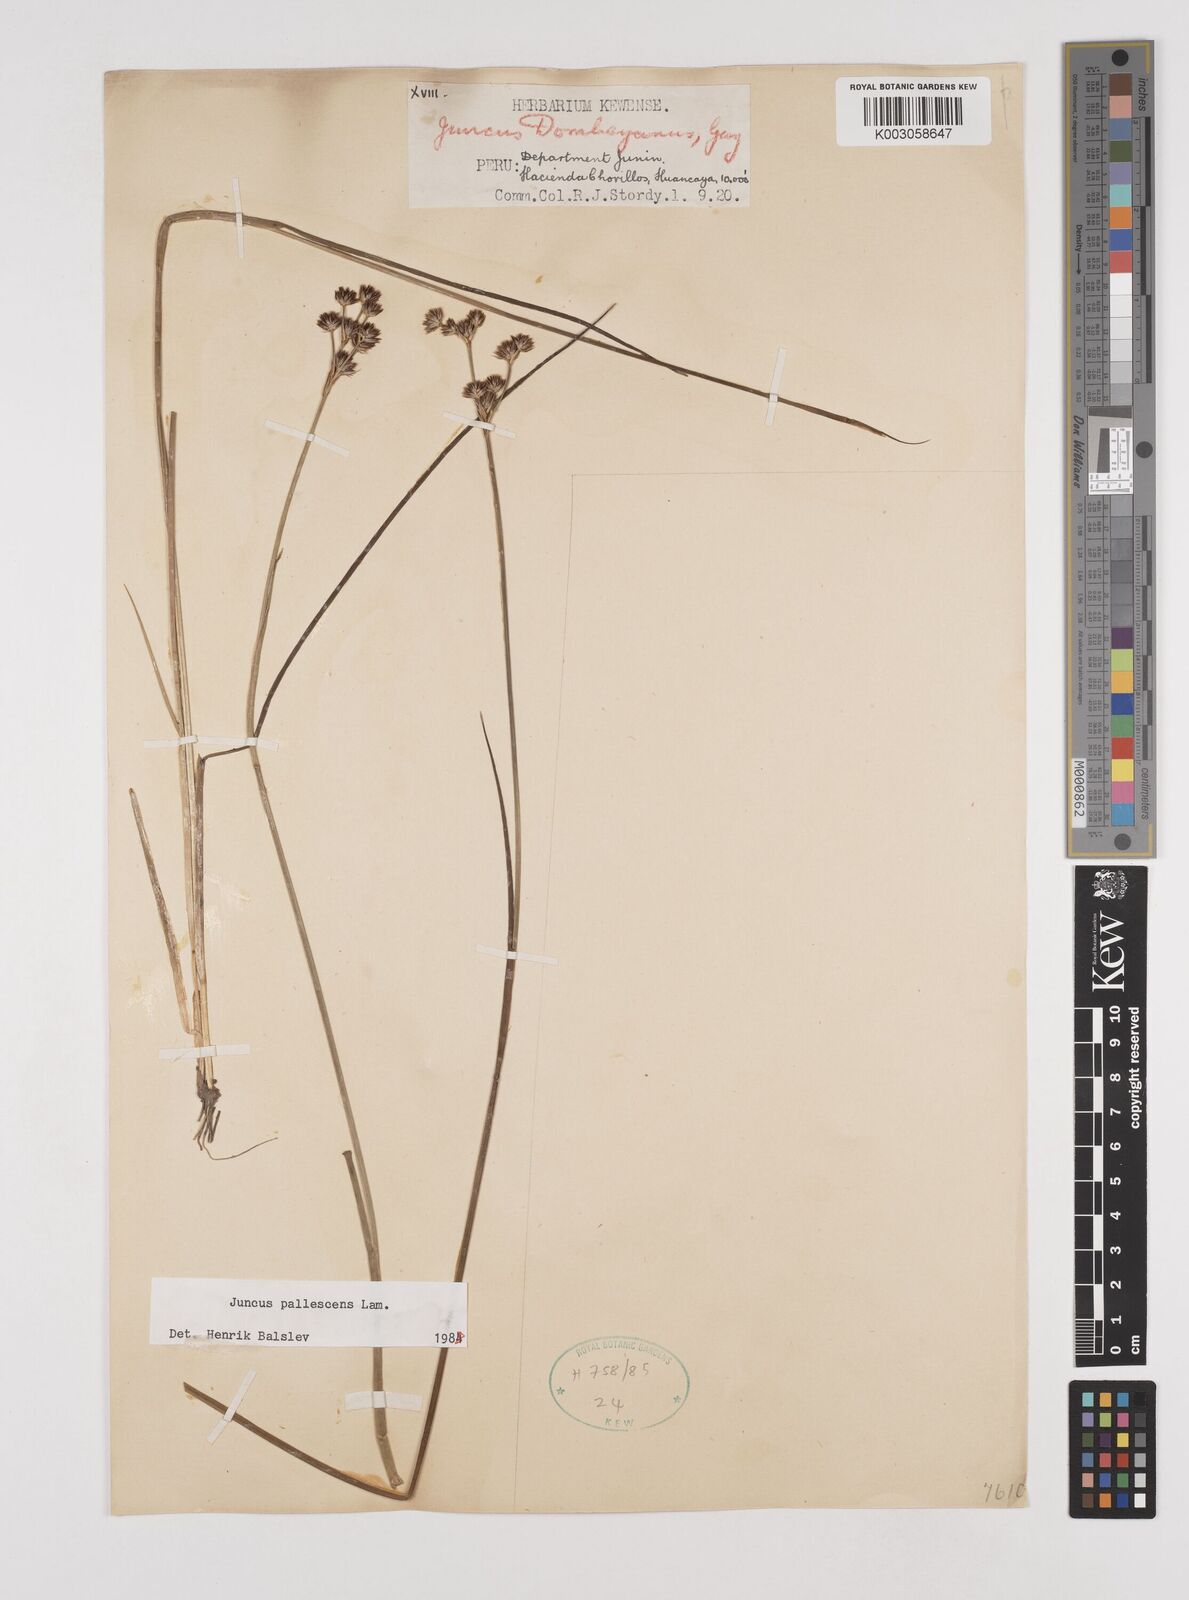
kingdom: Plantae
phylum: Tracheophyta
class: Liliopsida
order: Poales
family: Juncaceae
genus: Juncus
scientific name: Juncus pallescens
